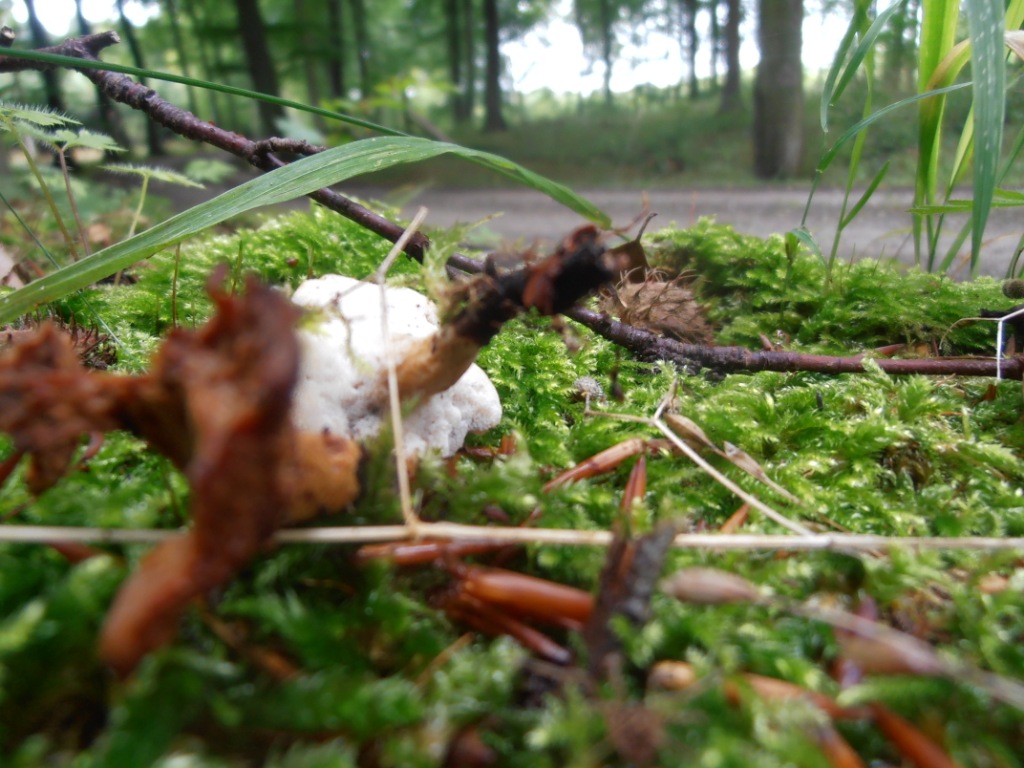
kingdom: Fungi
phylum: Basidiomycota
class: Agaricomycetes
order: Polyporales
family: Polyporaceae
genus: Cerioporus
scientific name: Cerioporus varius
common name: foranderlig stilkporesvamp
